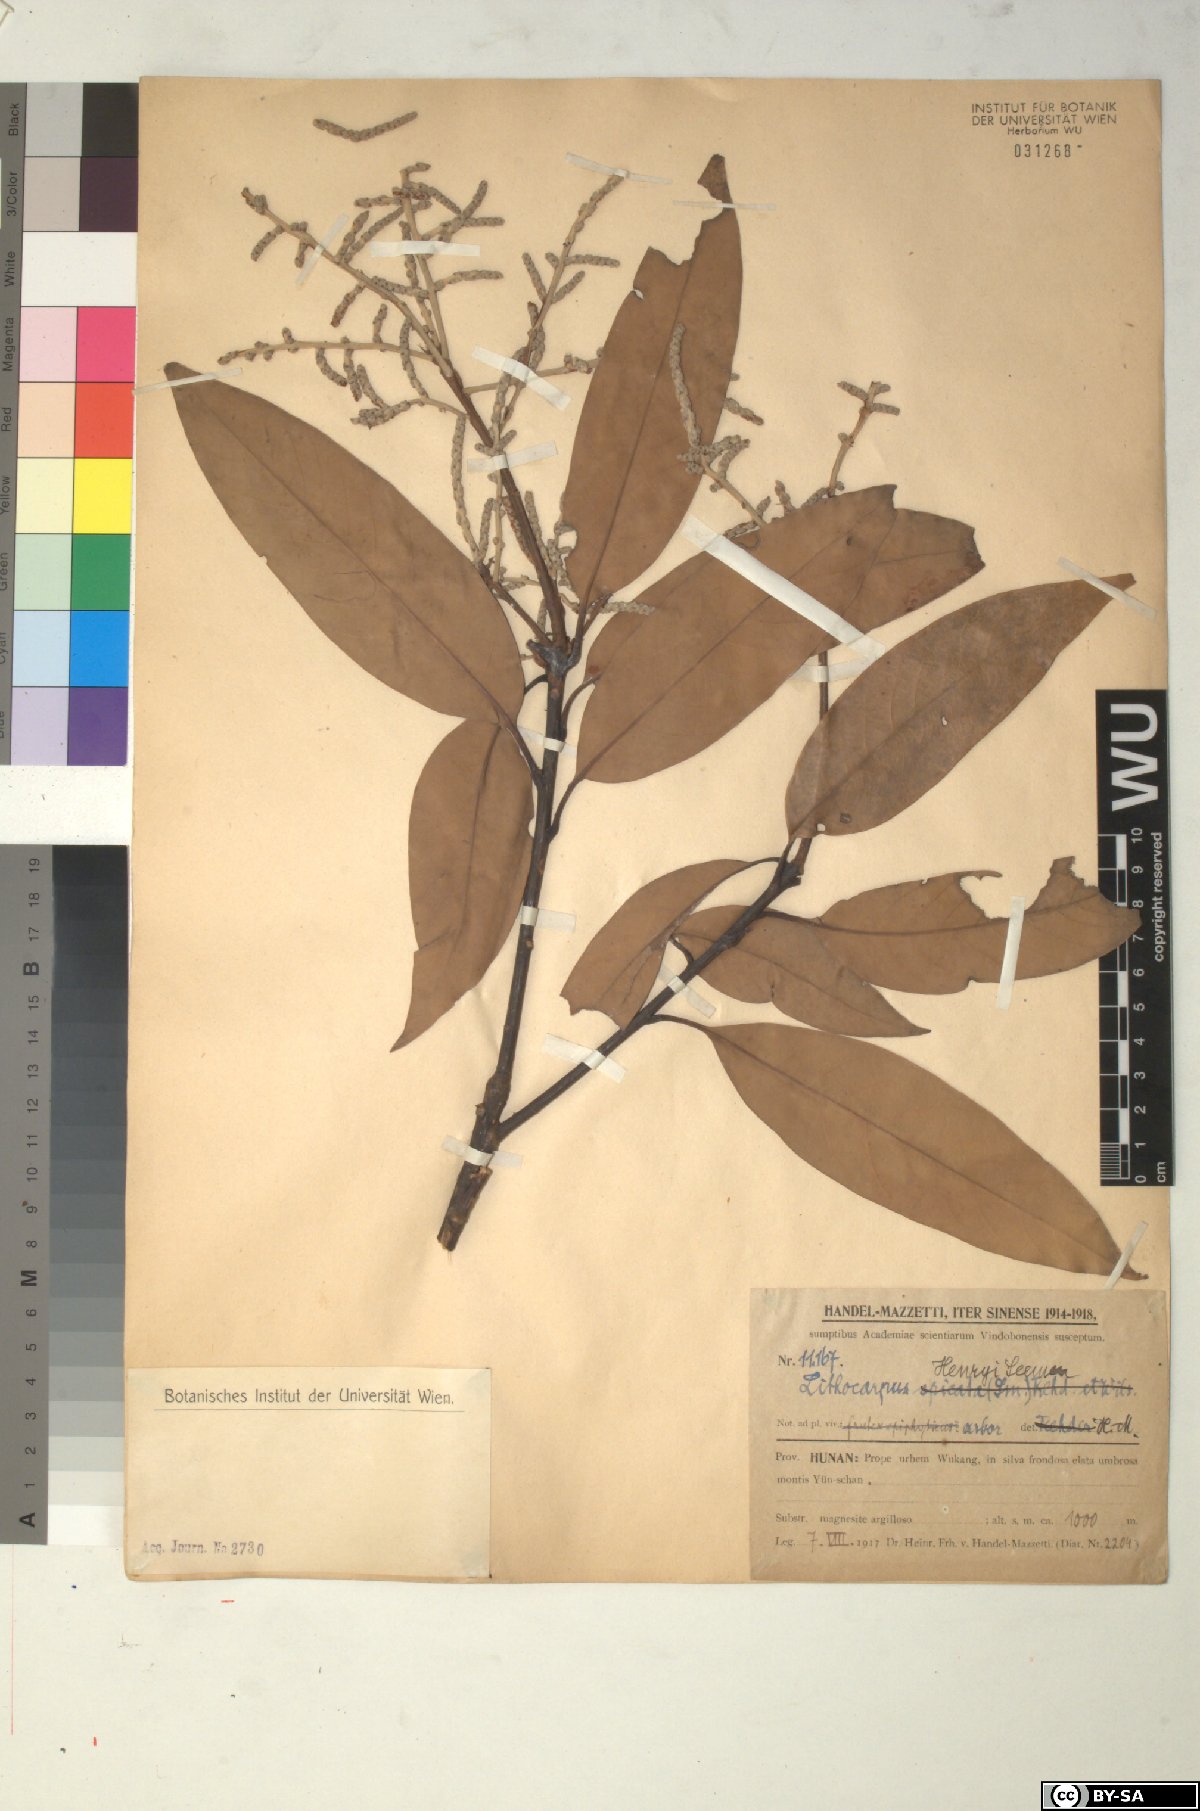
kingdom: Plantae
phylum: Tracheophyta
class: Magnoliopsida
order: Fagales
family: Fagaceae
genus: Lithocarpus
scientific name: Lithocarpus henryi
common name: Henry tanbark oak
